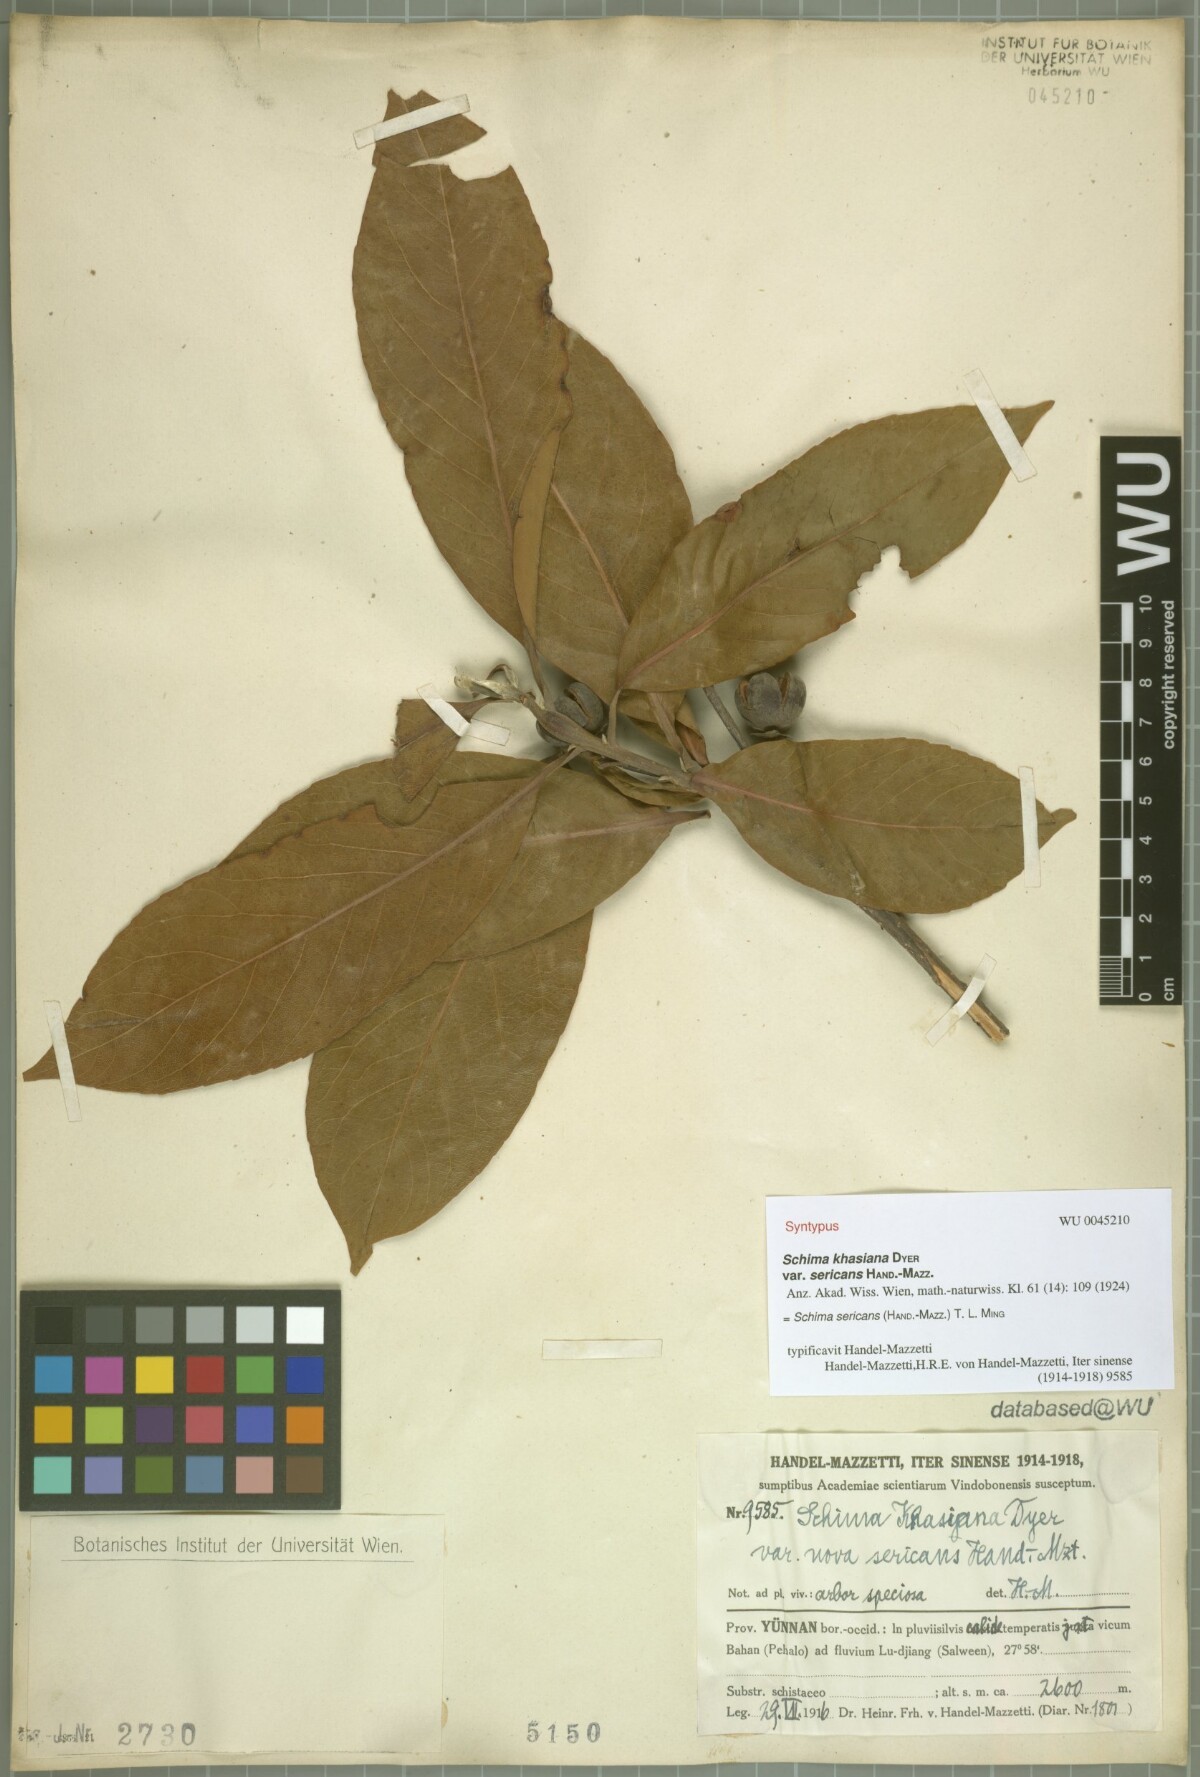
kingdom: Plantae
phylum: Tracheophyta
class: Magnoliopsida
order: Ericales
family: Theaceae
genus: Schima
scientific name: Schima sericans
